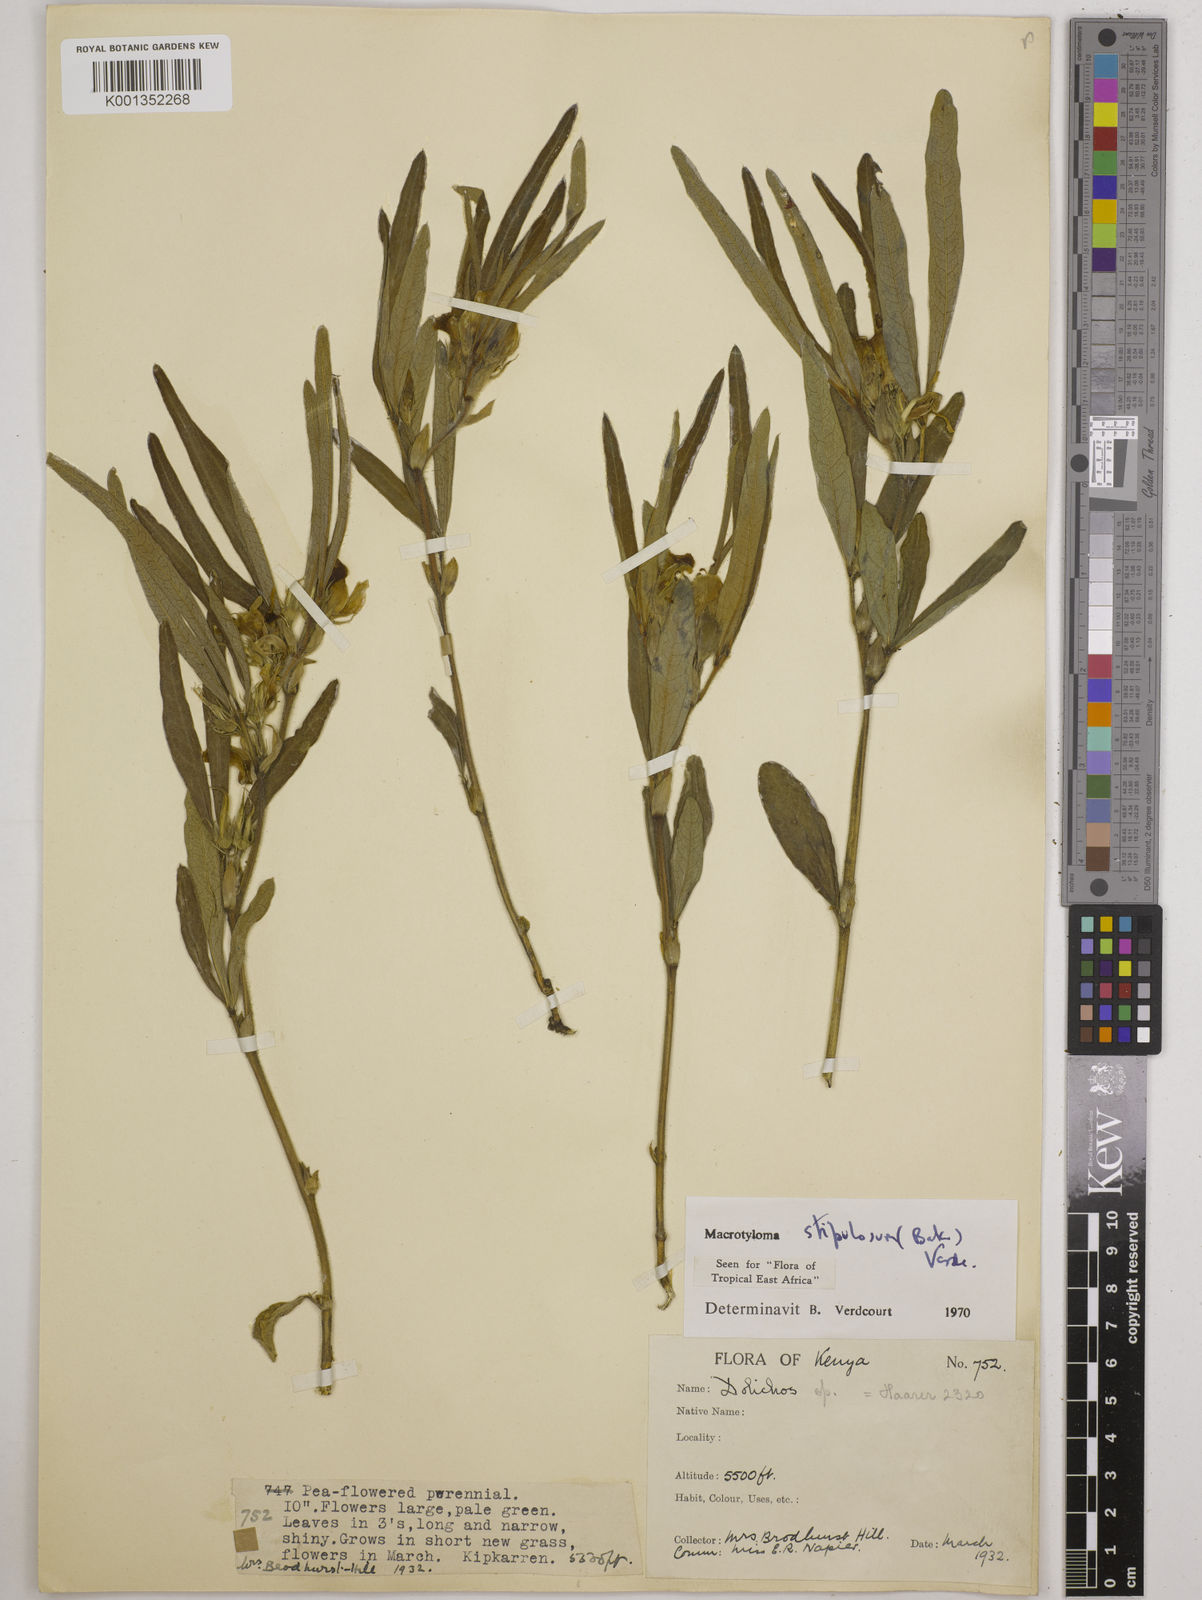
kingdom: Plantae
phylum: Tracheophyta
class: Magnoliopsida
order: Fabales
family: Fabaceae
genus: Macrotyloma
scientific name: Macrotyloma stipulosum
